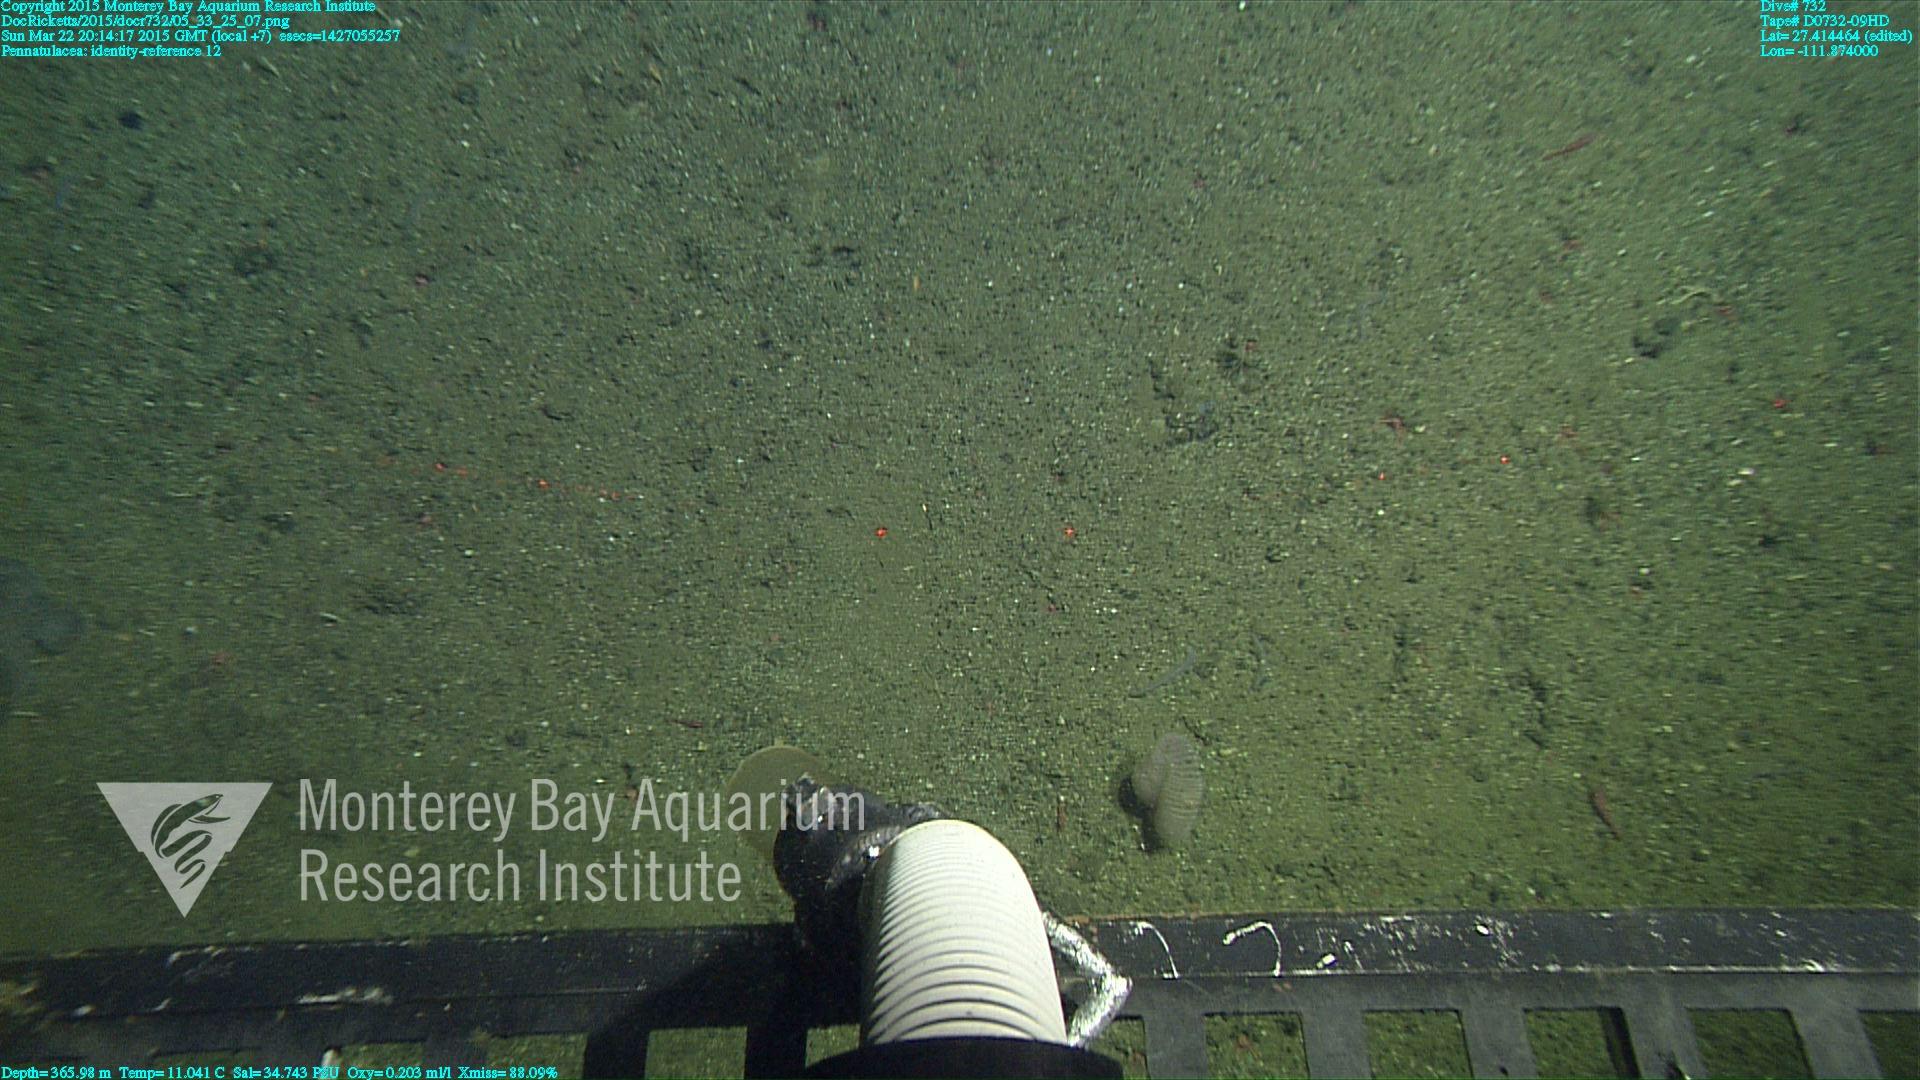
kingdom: Animalia
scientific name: Animalia
